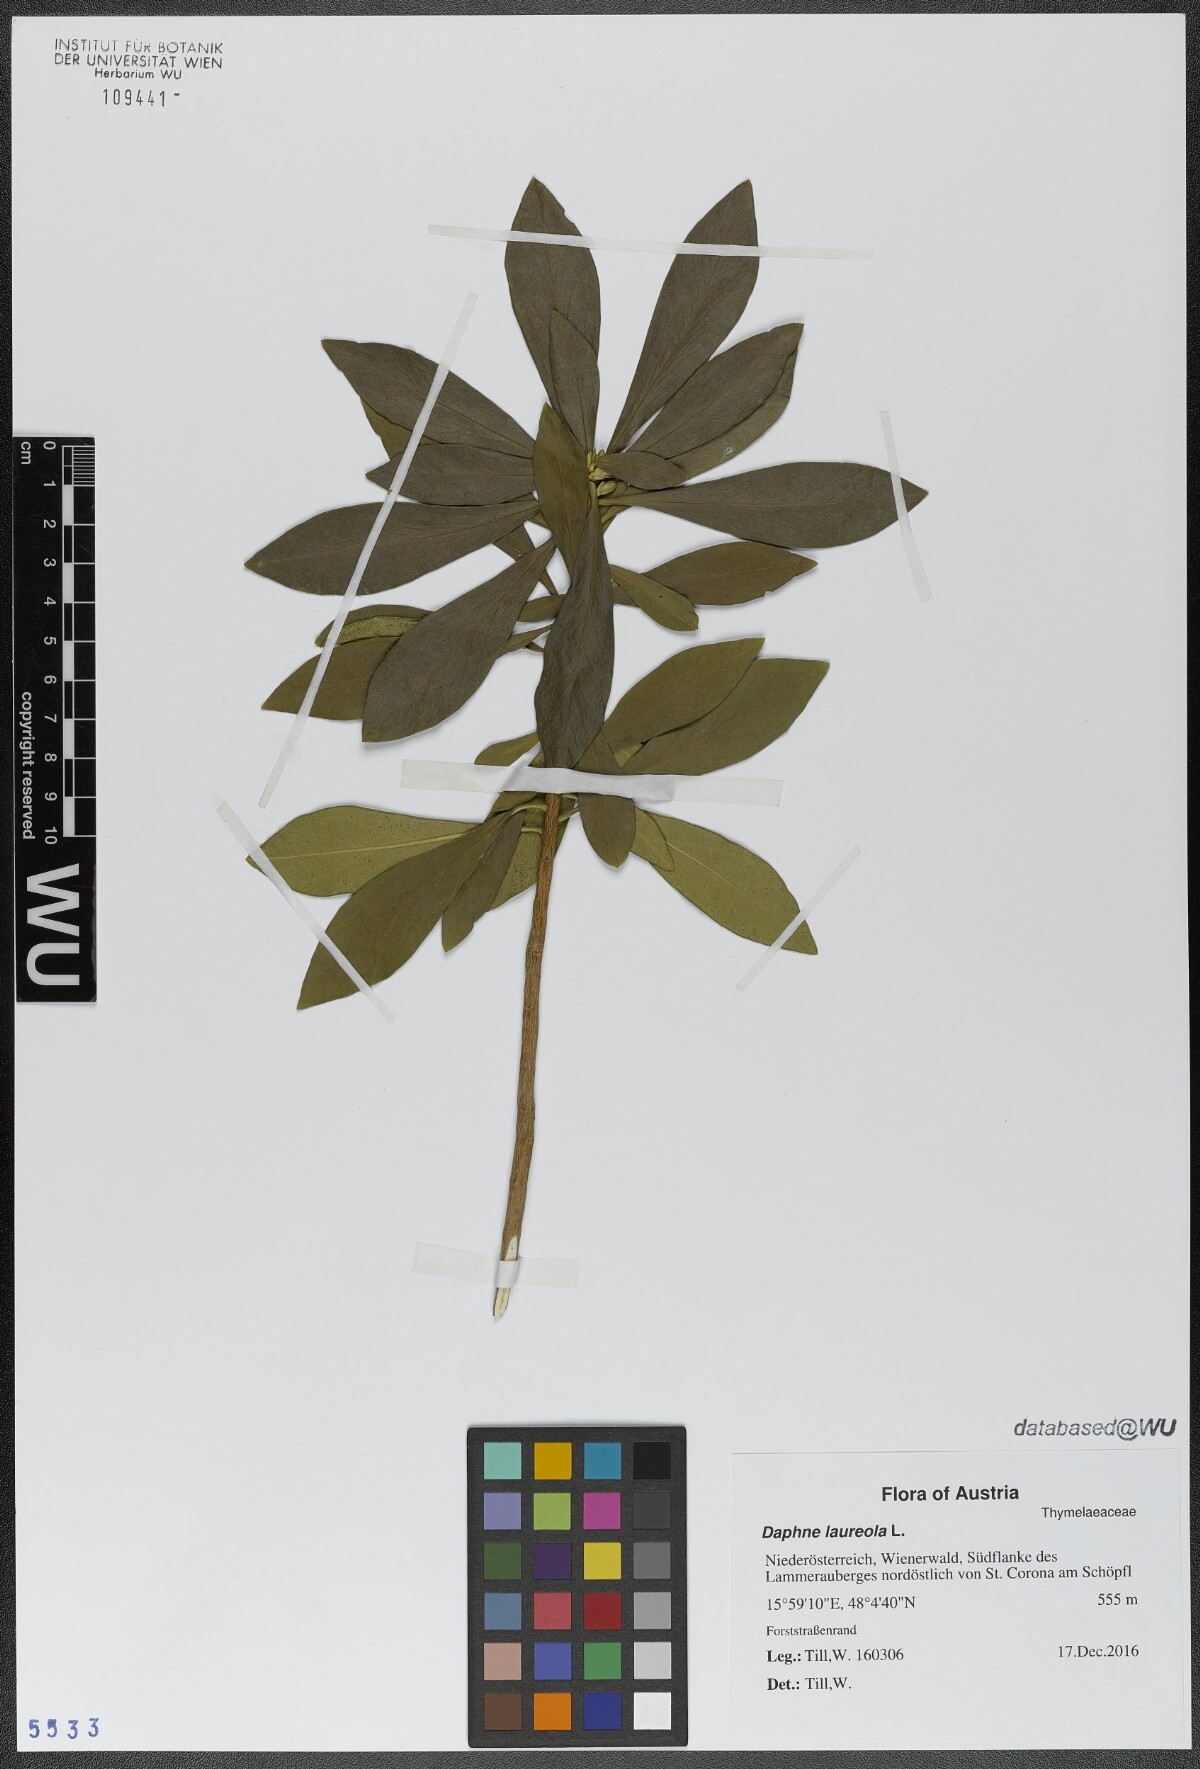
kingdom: Plantae
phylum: Tracheophyta
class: Magnoliopsida
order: Malvales
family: Thymelaeaceae
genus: Daphne
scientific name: Daphne laureola
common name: Spurge-laurel
